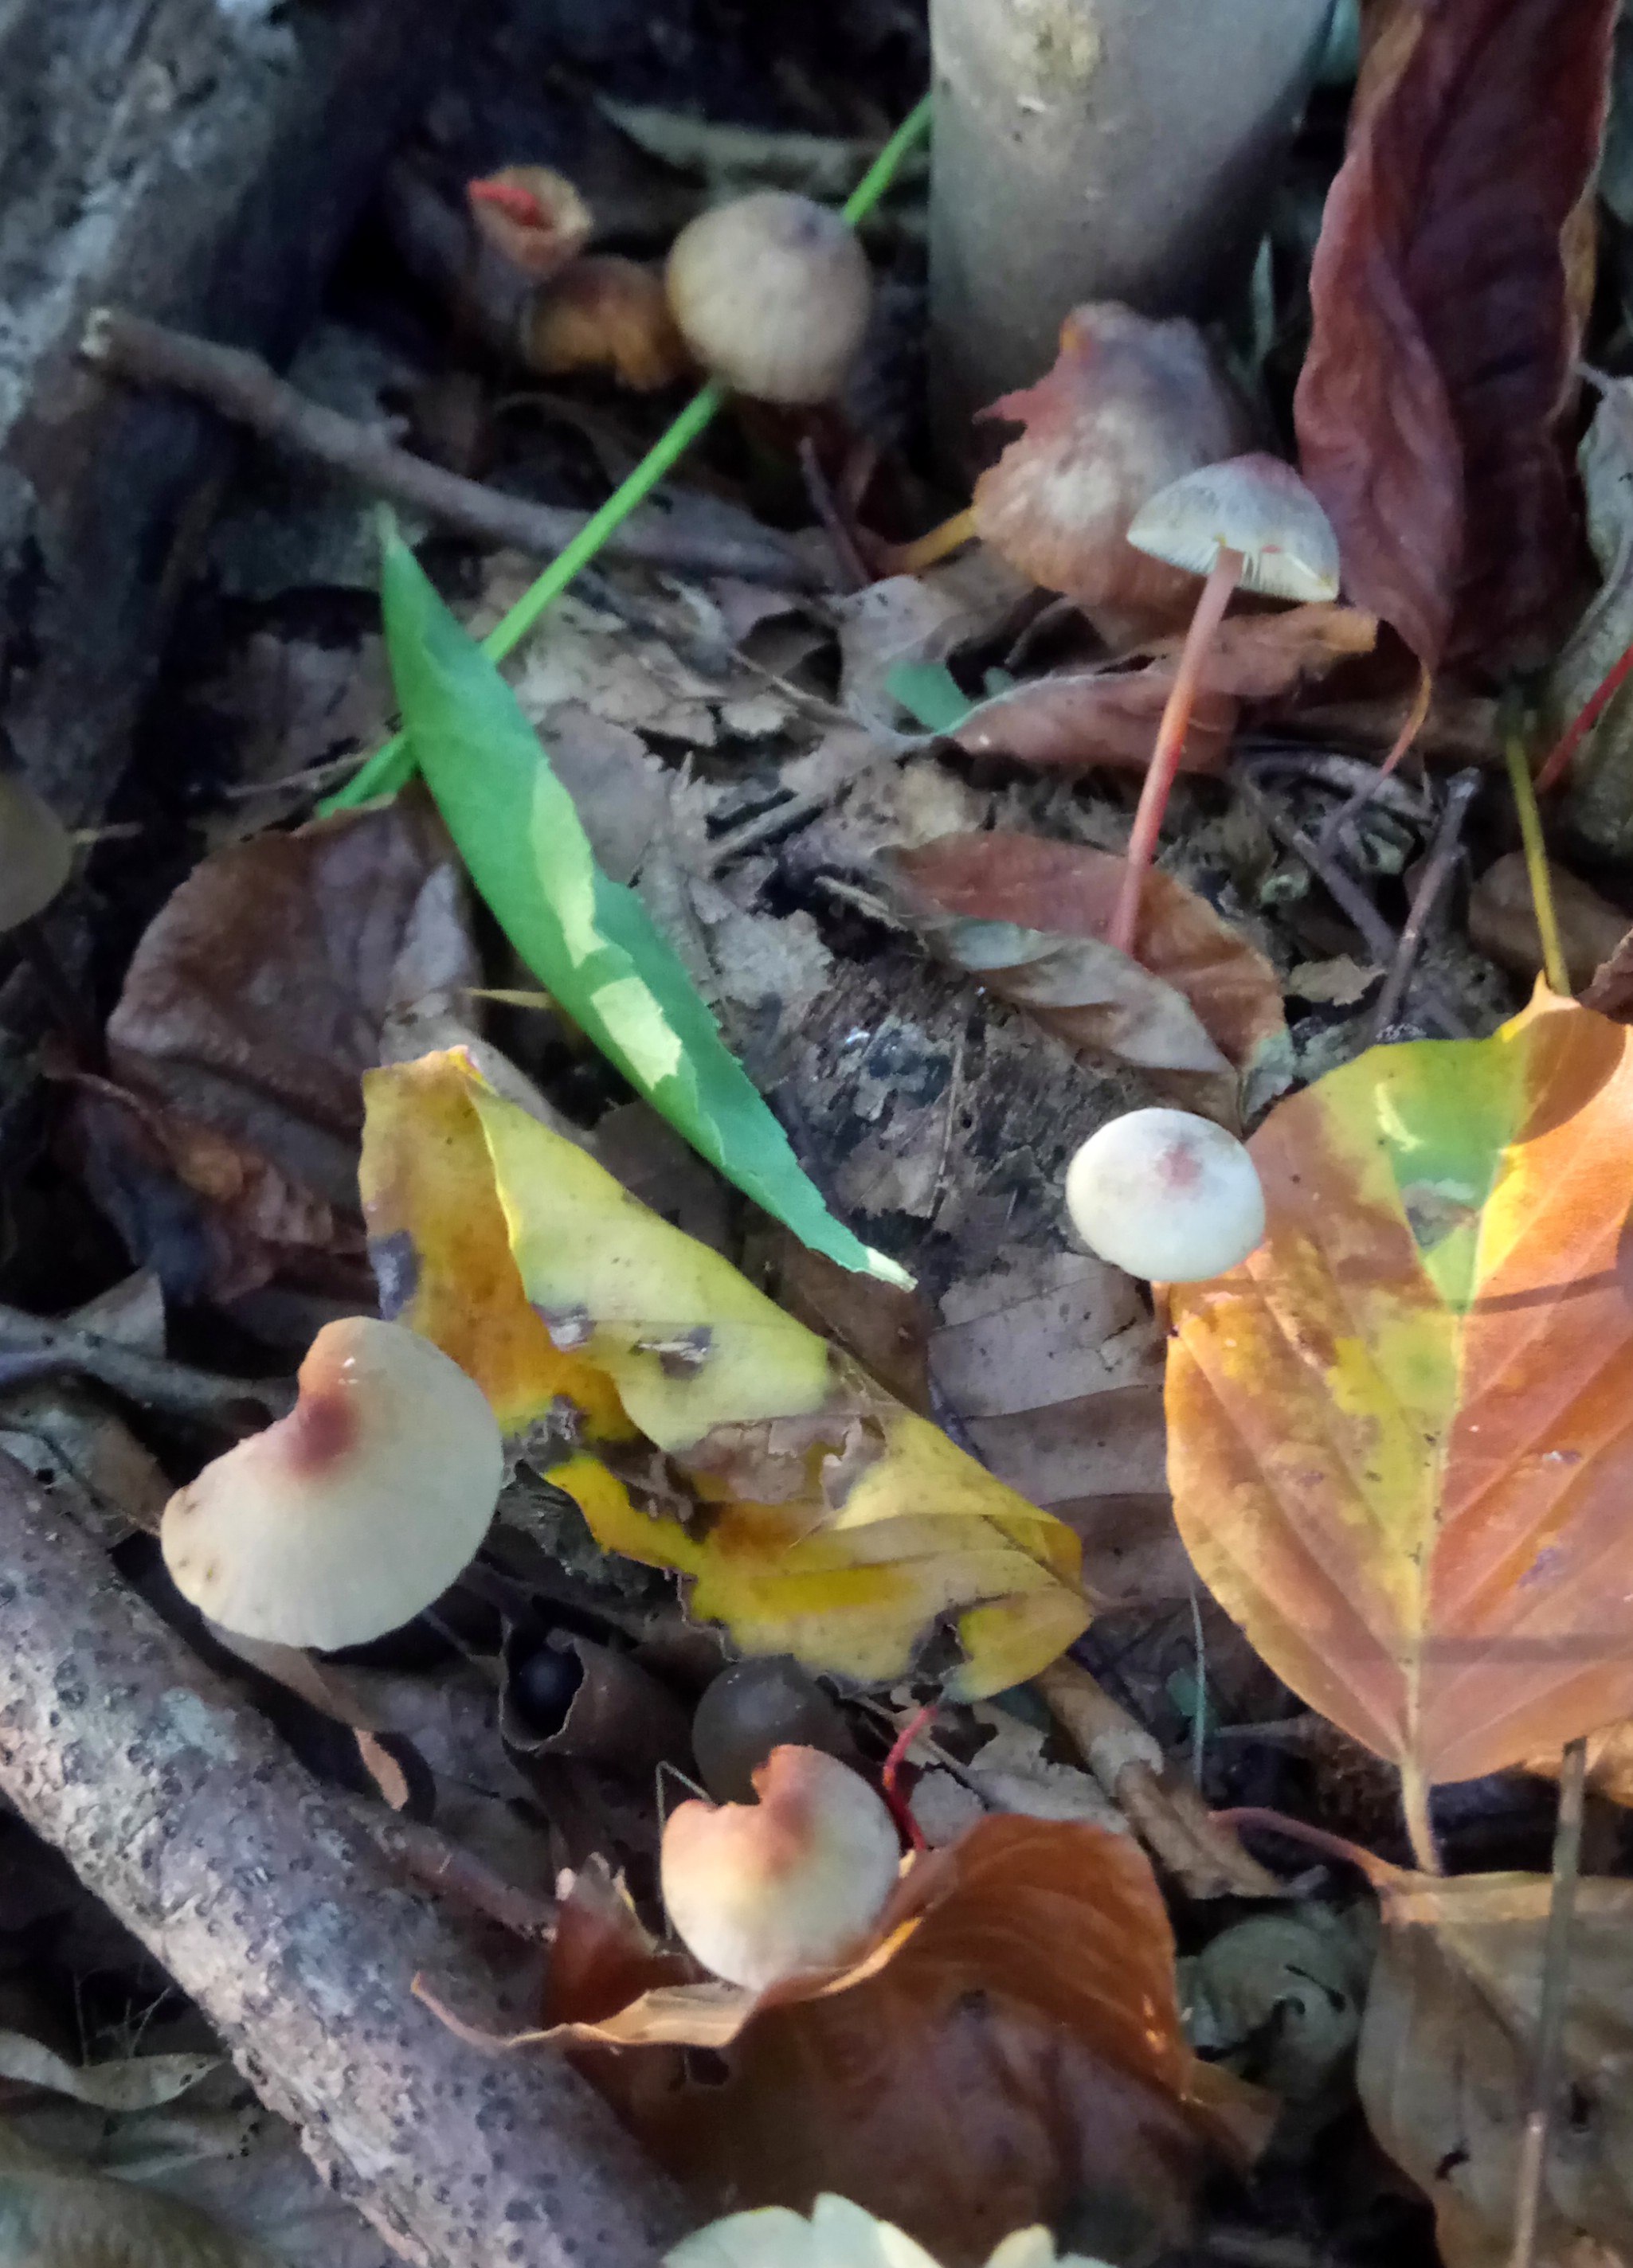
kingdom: Fungi
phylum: Basidiomycota
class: Agaricomycetes
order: Agaricales
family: Mycenaceae
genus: Mycena
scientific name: Mycena crocata
